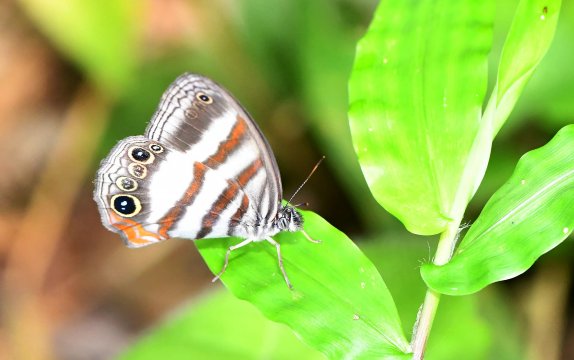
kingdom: Animalia
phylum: Arthropoda
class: Insecta
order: Lepidoptera
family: Nymphalidae
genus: Pareuptychia
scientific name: Pareuptychia
